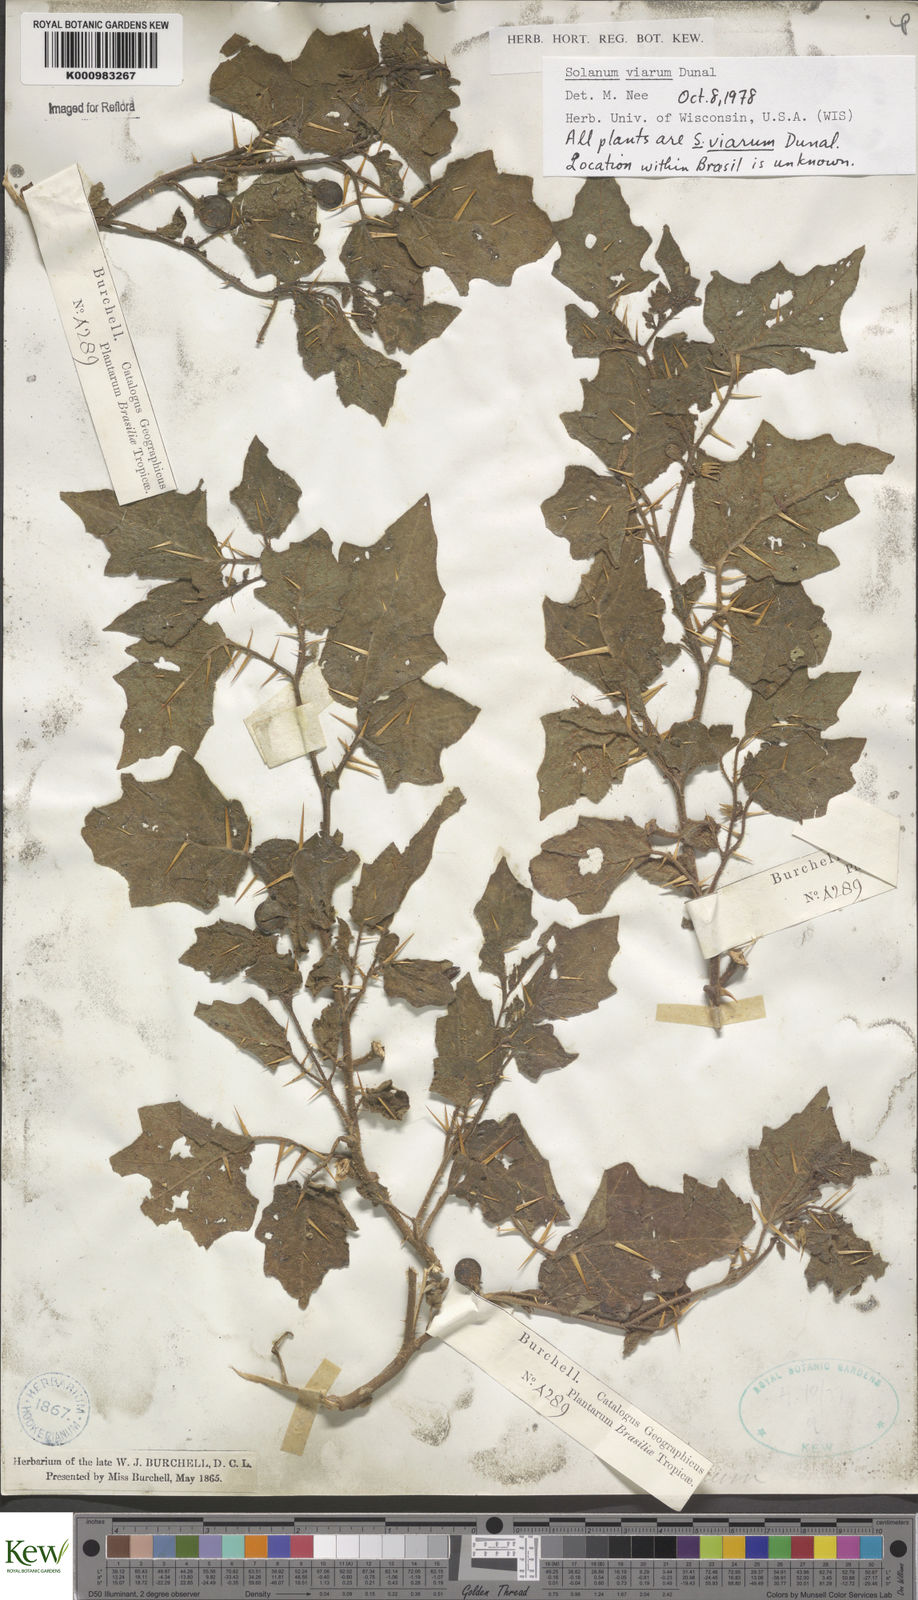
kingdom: Plantae
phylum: Tracheophyta
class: Magnoliopsida
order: Solanales
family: Solanaceae
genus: Solanum
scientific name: Solanum viarum
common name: Tropical soda apple
